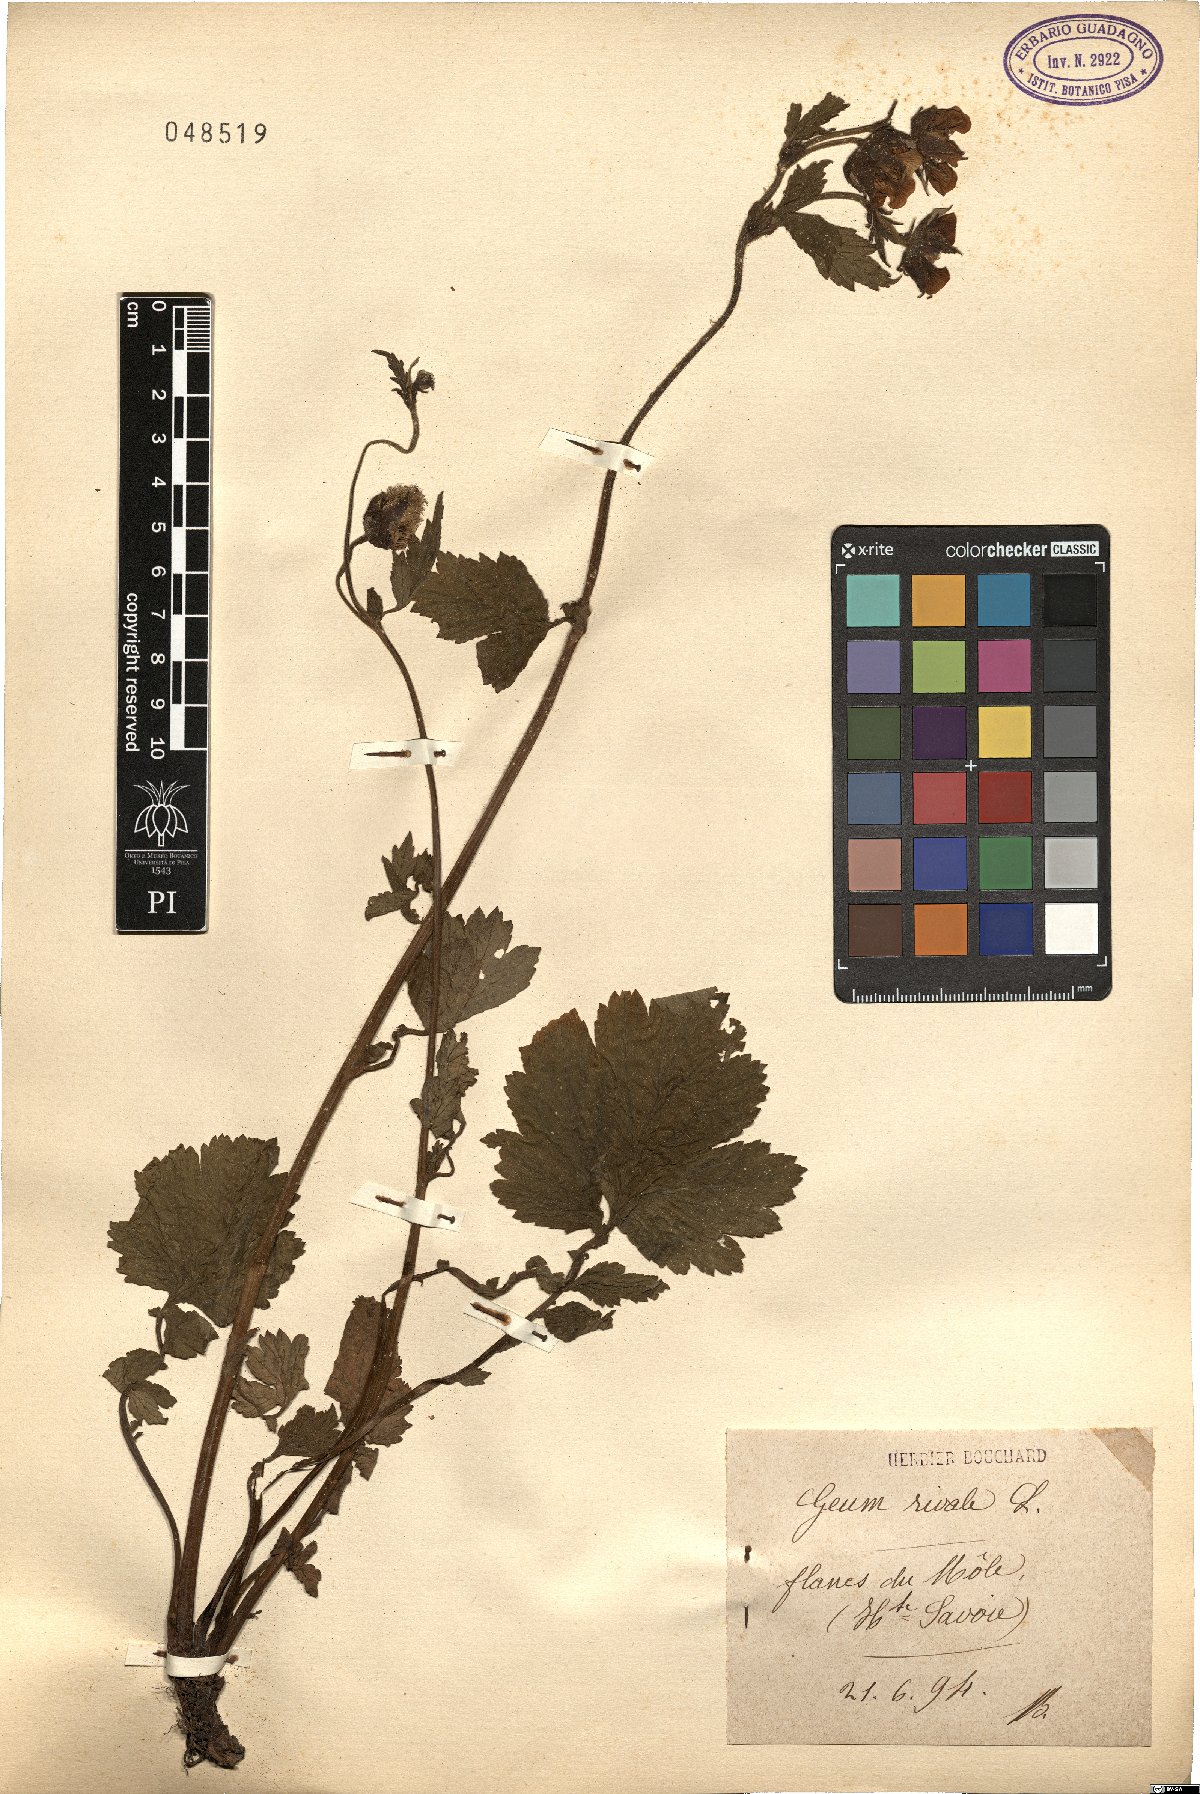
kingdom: Plantae
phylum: Tracheophyta
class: Magnoliopsida
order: Rosales
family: Rosaceae
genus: Geum
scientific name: Geum rivale
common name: Water avens
